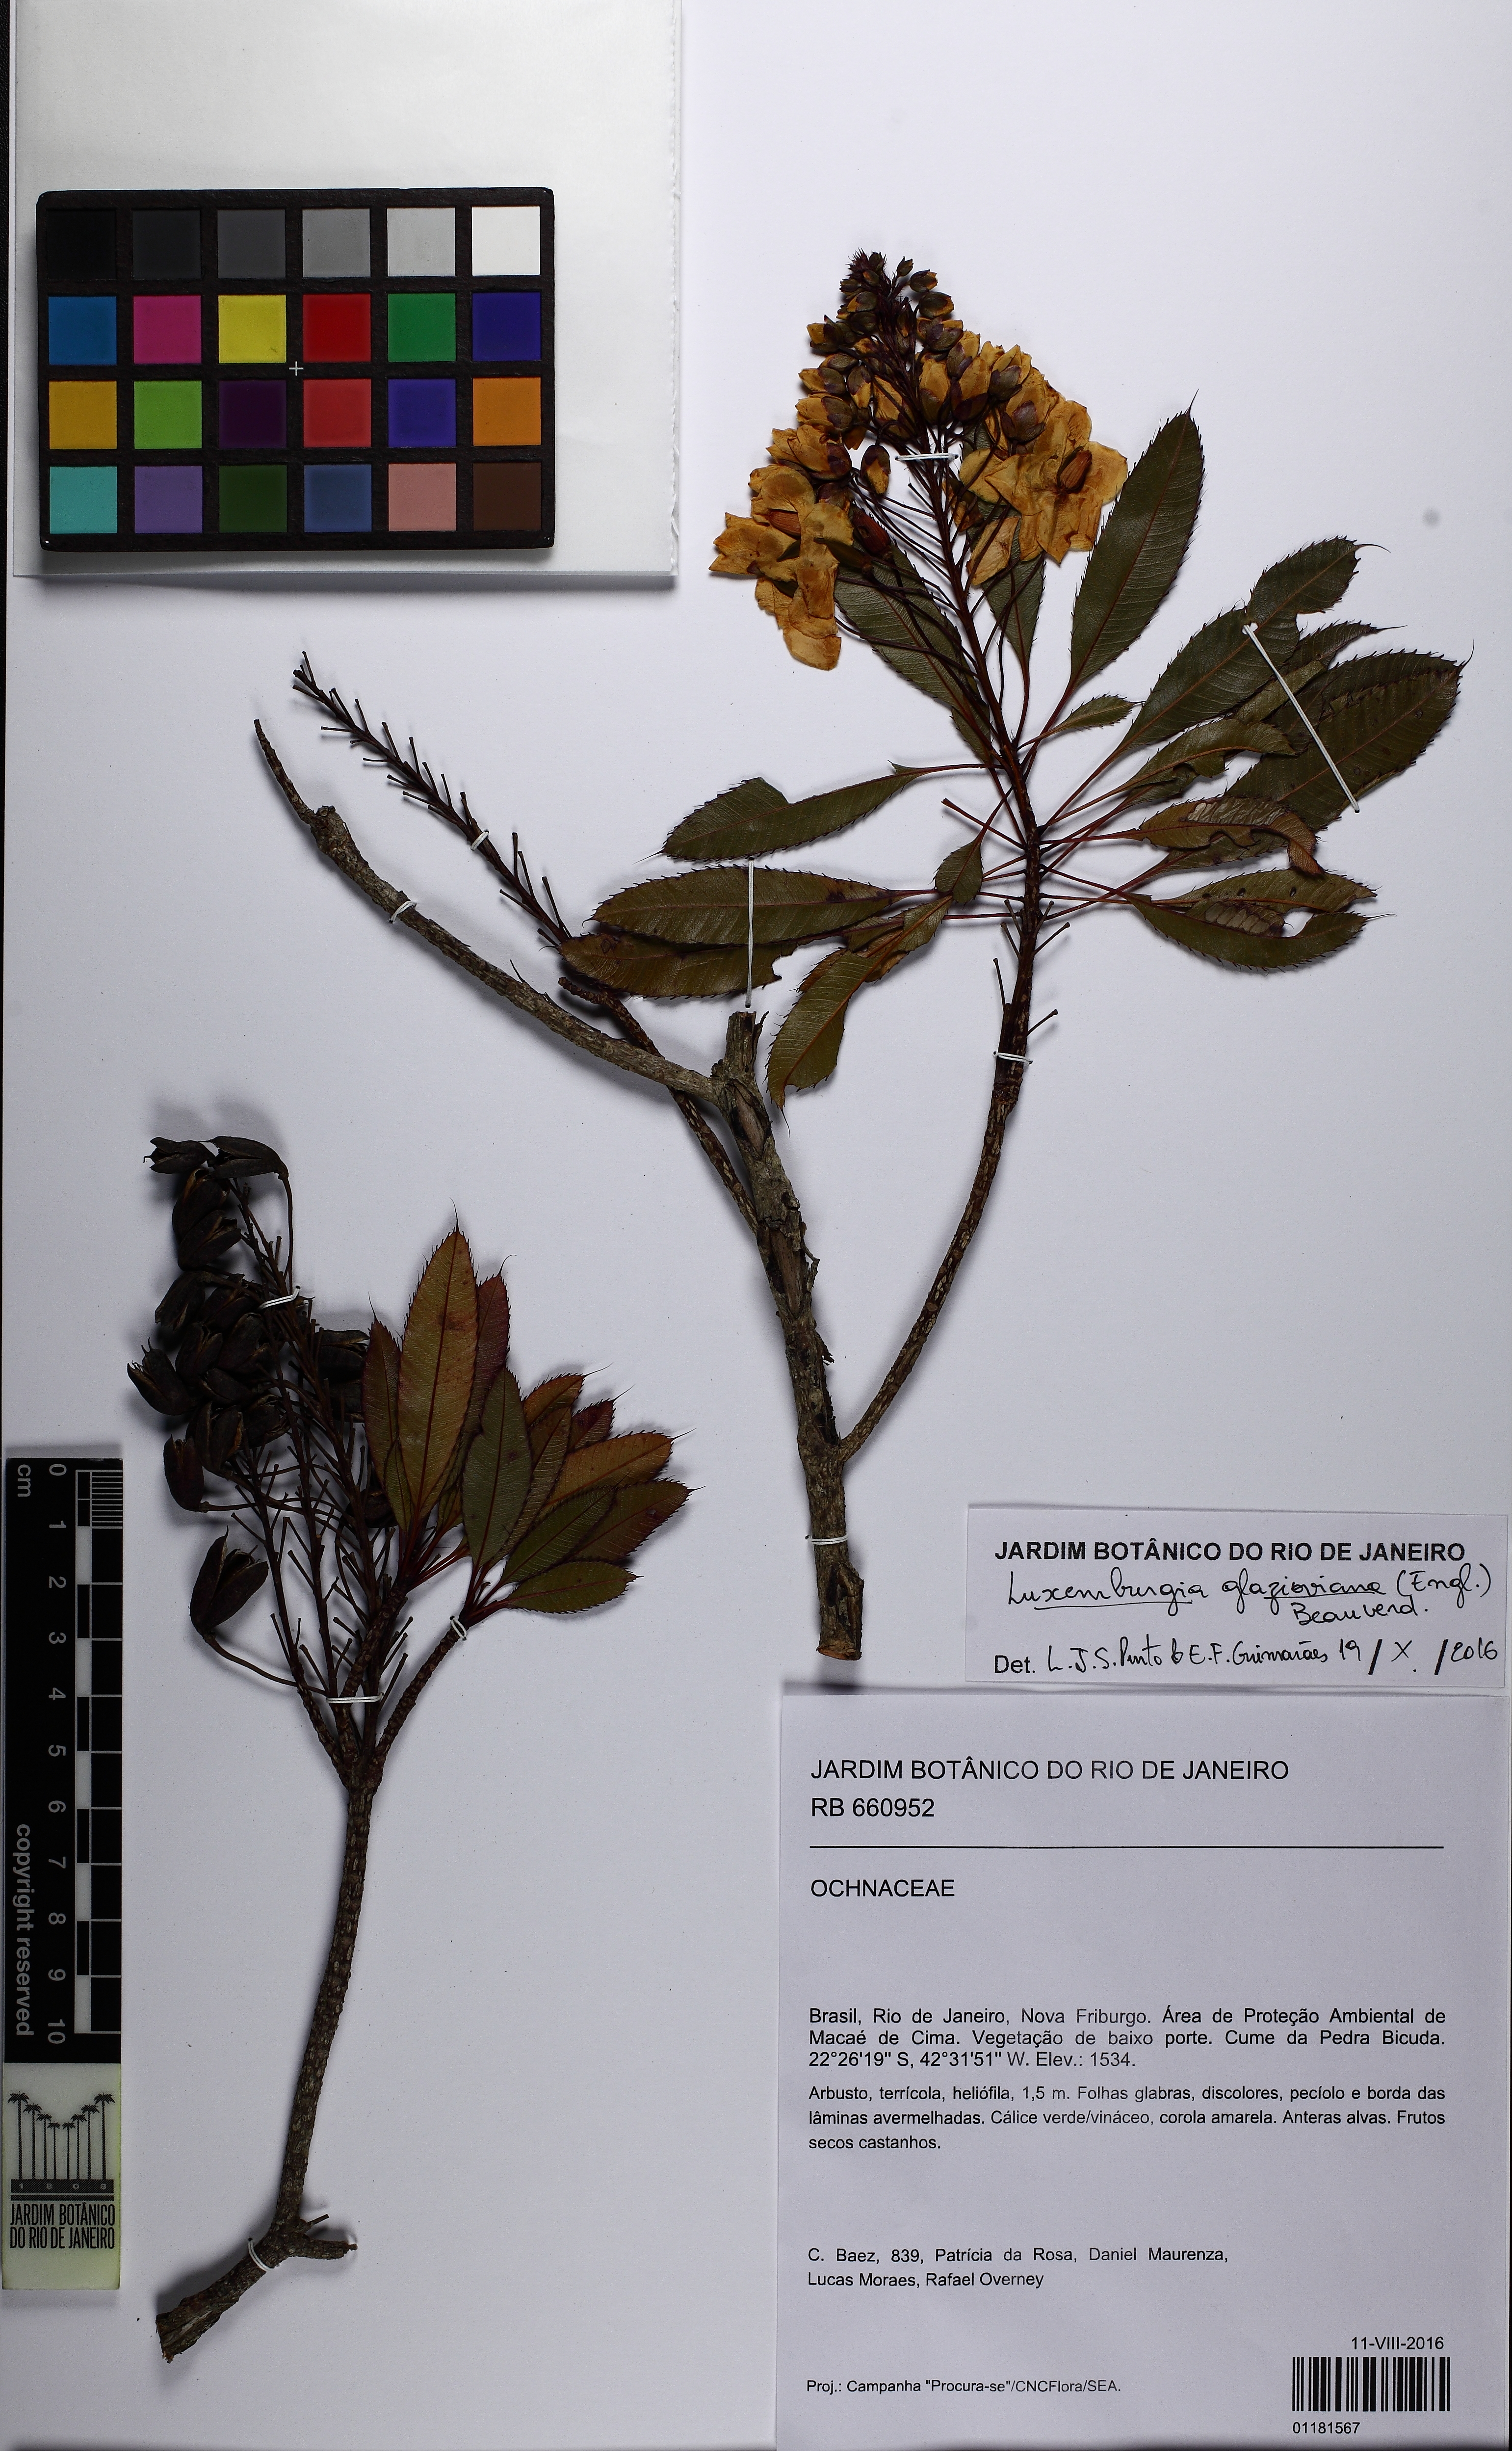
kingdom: Plantae
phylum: Tracheophyta
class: Magnoliopsida
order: Malpighiales
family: Ochnaceae
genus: Luxemburgia
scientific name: Luxemburgia glazioviana
